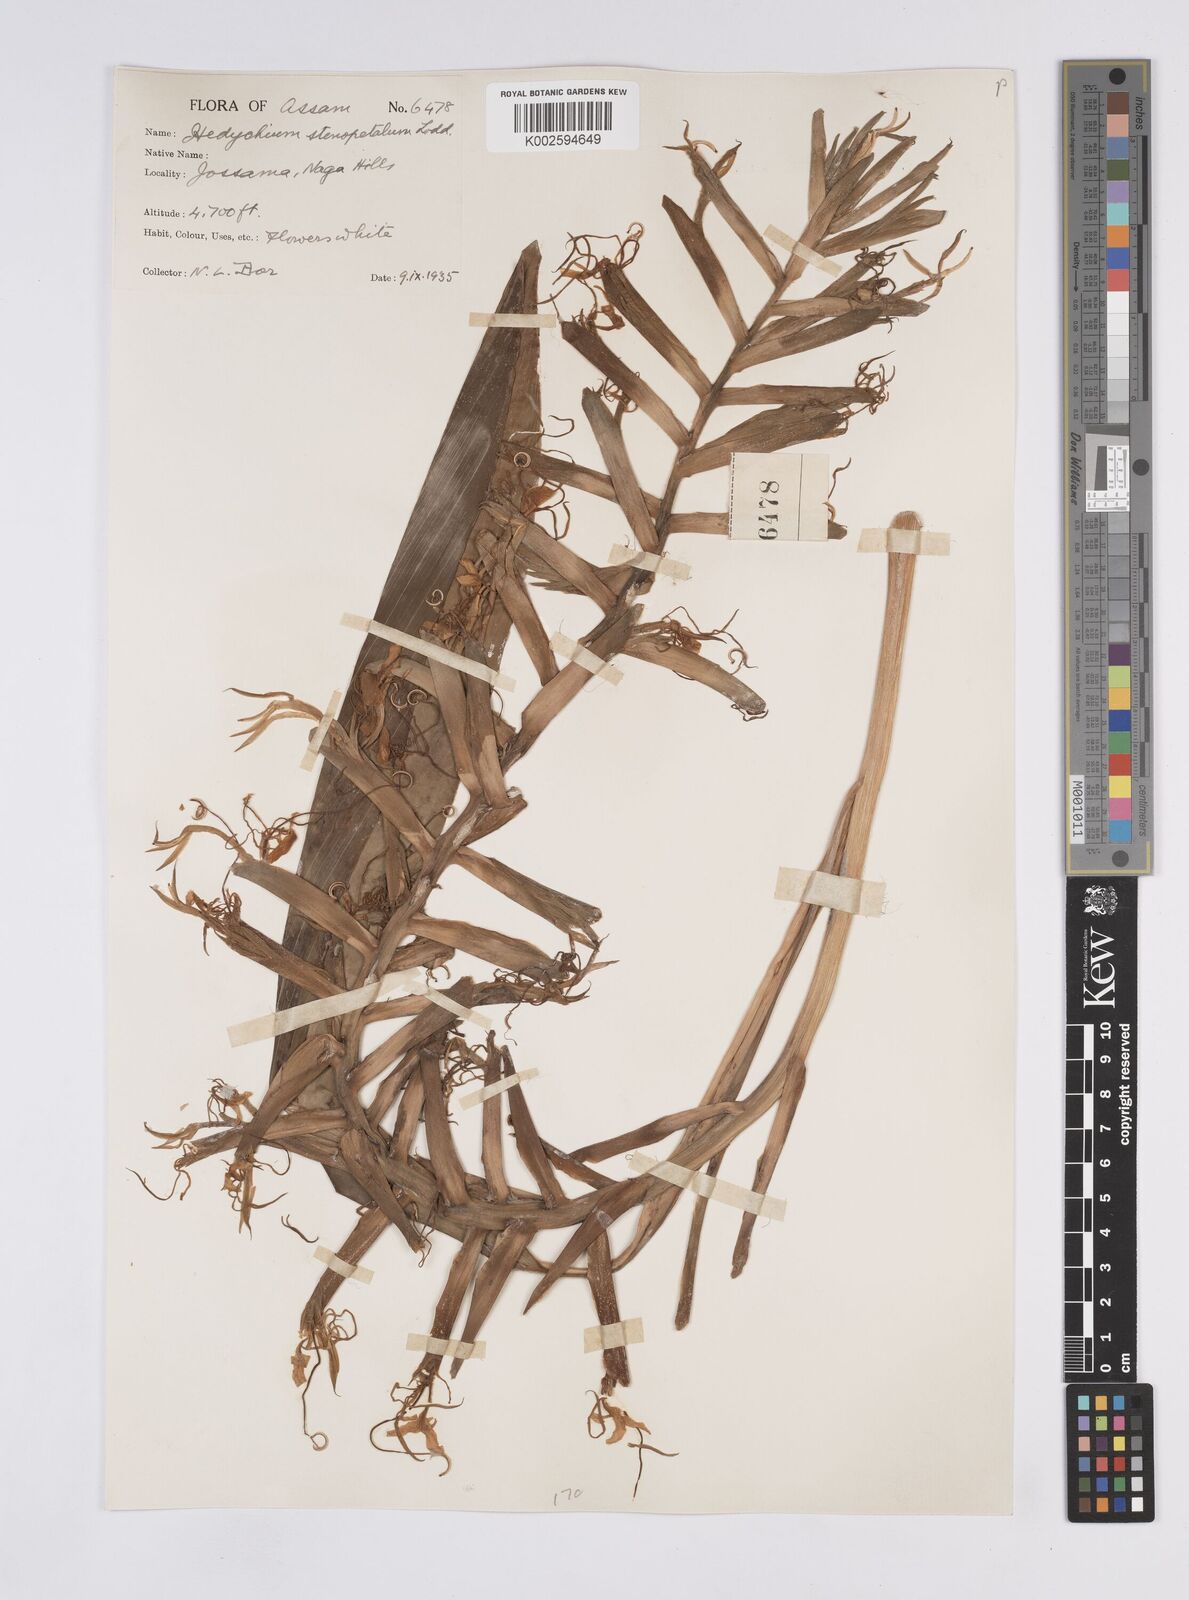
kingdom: Plantae
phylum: Tracheophyta
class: Liliopsida
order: Zingiberales
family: Zingiberaceae
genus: Hedychium
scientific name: Hedychium stenopetalum
